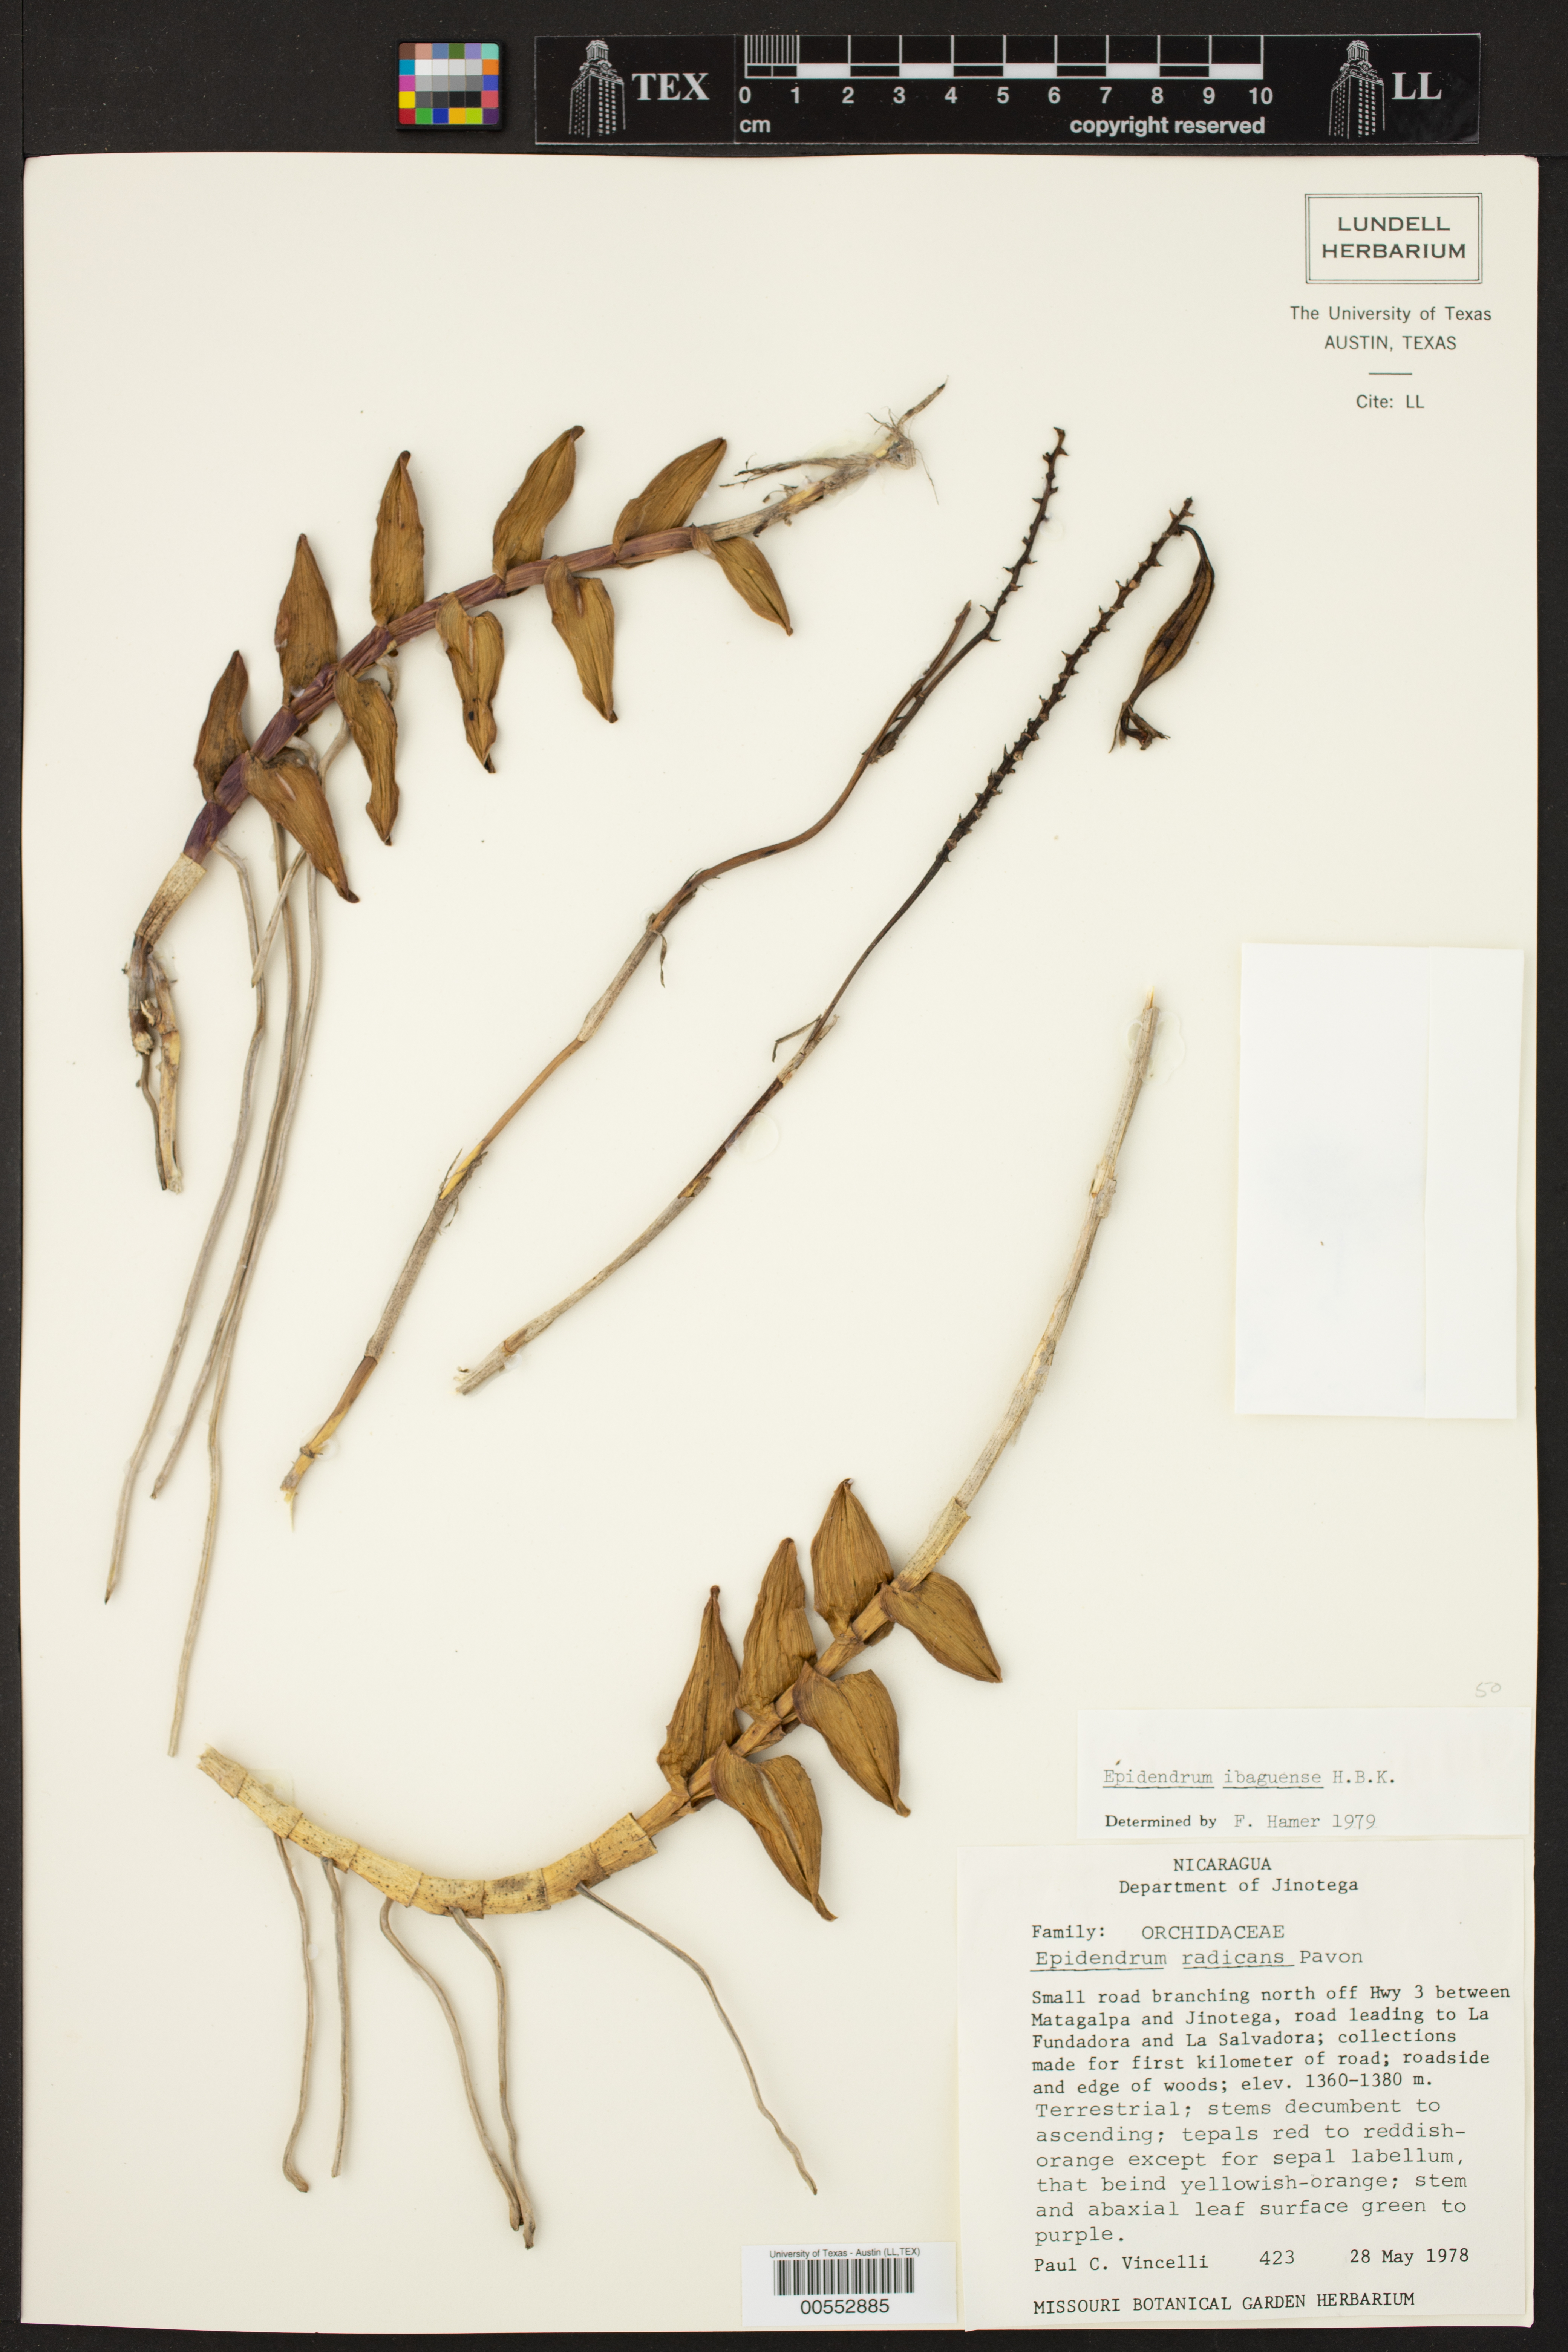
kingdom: Plantae
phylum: Tracheophyta
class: Liliopsida
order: Asparagales
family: Orchidaceae
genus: Epidendrum
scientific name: Epidendrum ibaguense
